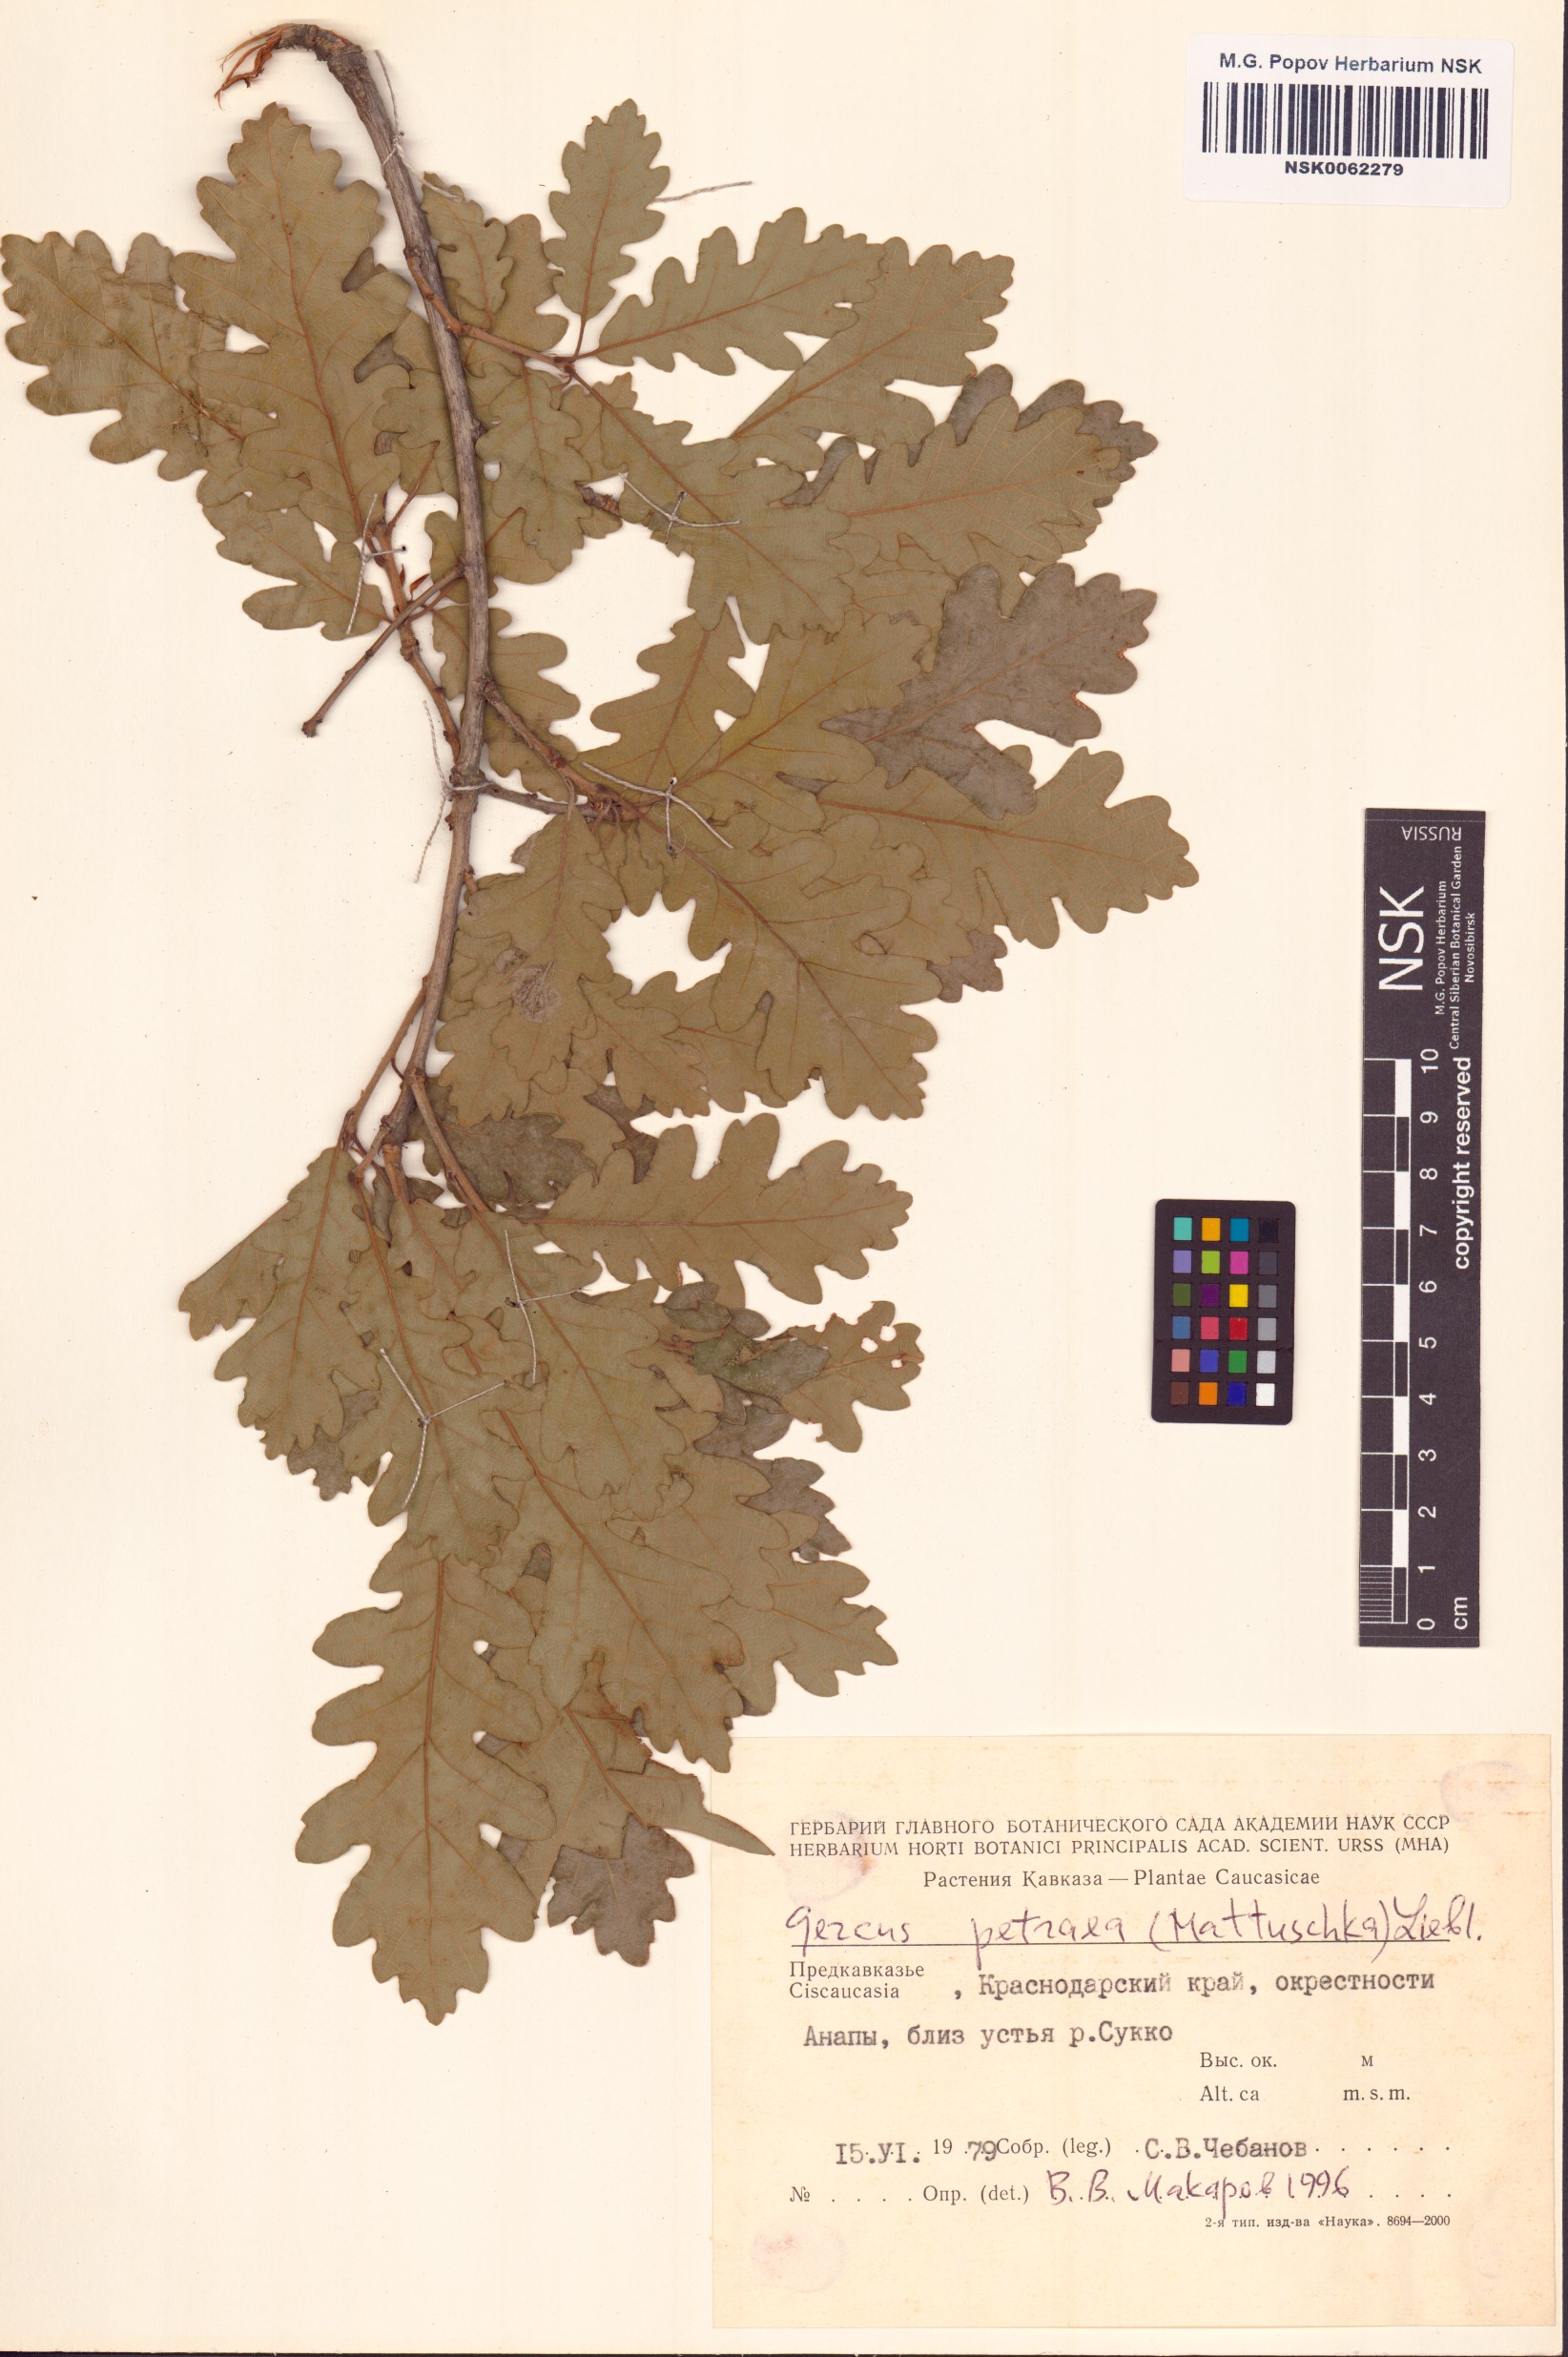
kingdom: Plantae
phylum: Tracheophyta
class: Magnoliopsida
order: Fagales
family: Fagaceae
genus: Quercus
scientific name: Quercus petraea
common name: Sessile oak
